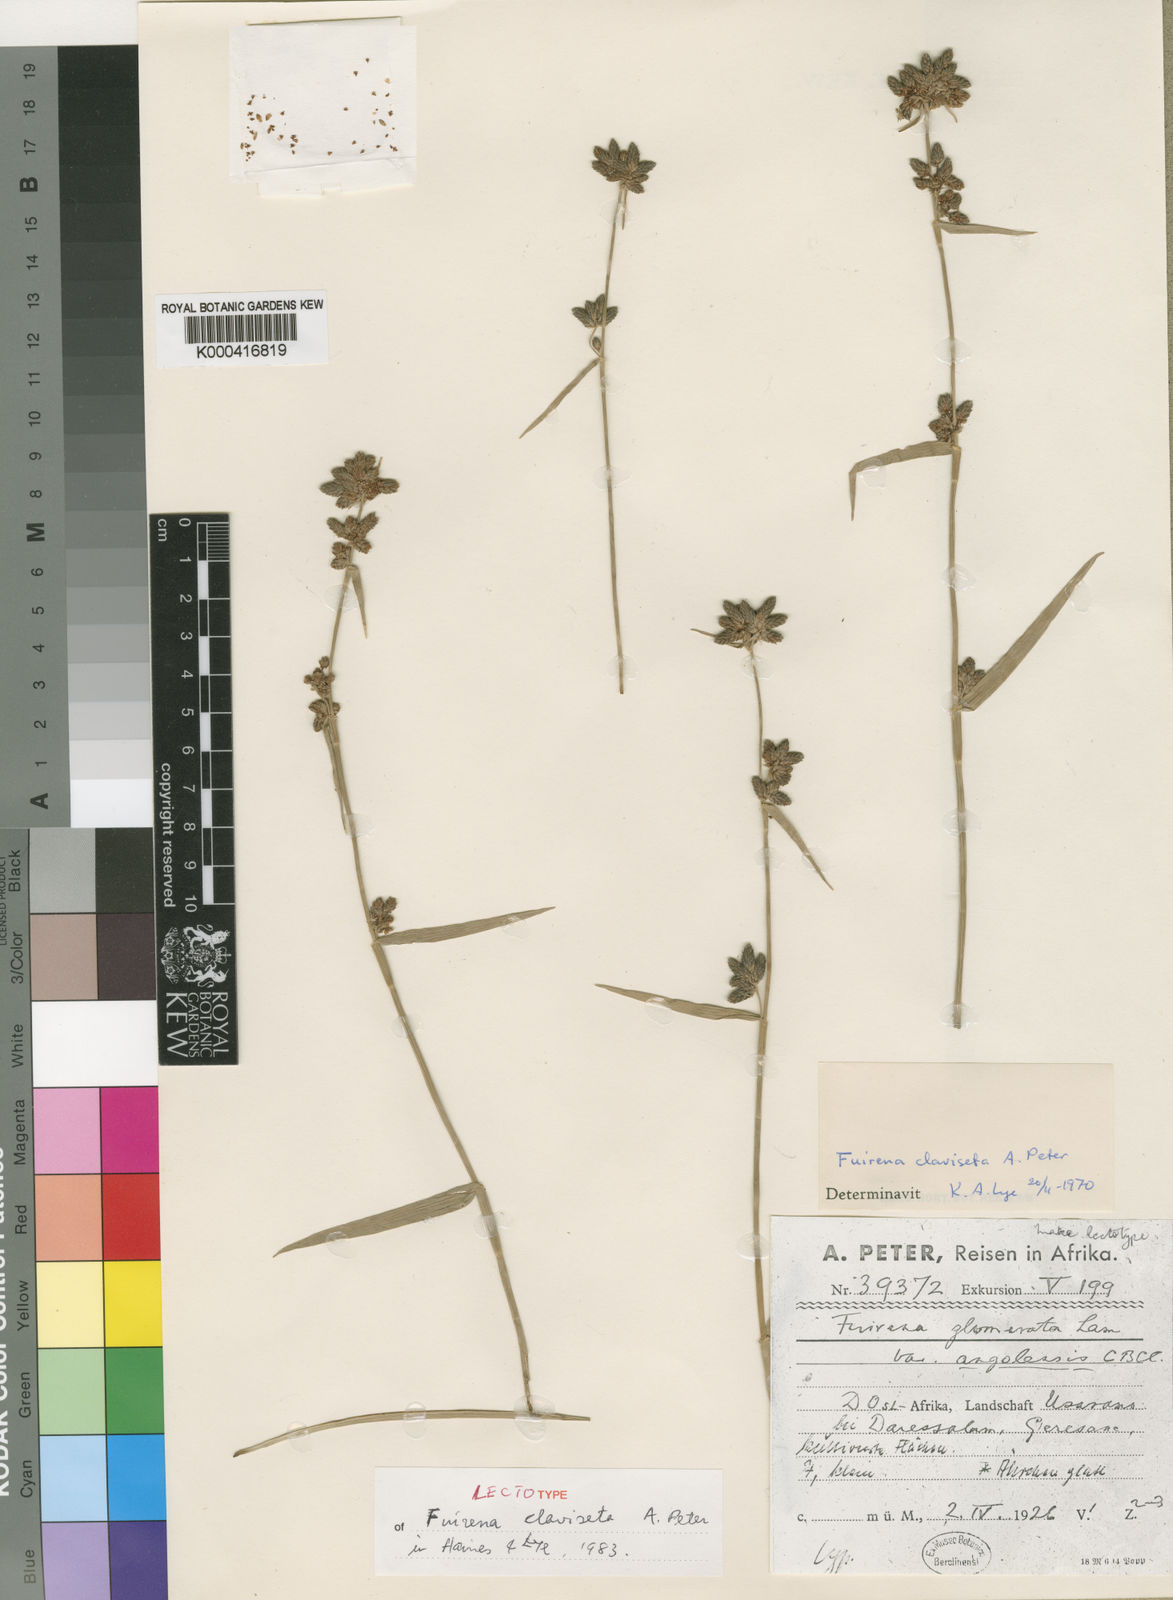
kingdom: Plantae
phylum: Tracheophyta
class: Liliopsida
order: Poales
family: Cyperaceae
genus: Fuirena
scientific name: Fuirena claviseta
